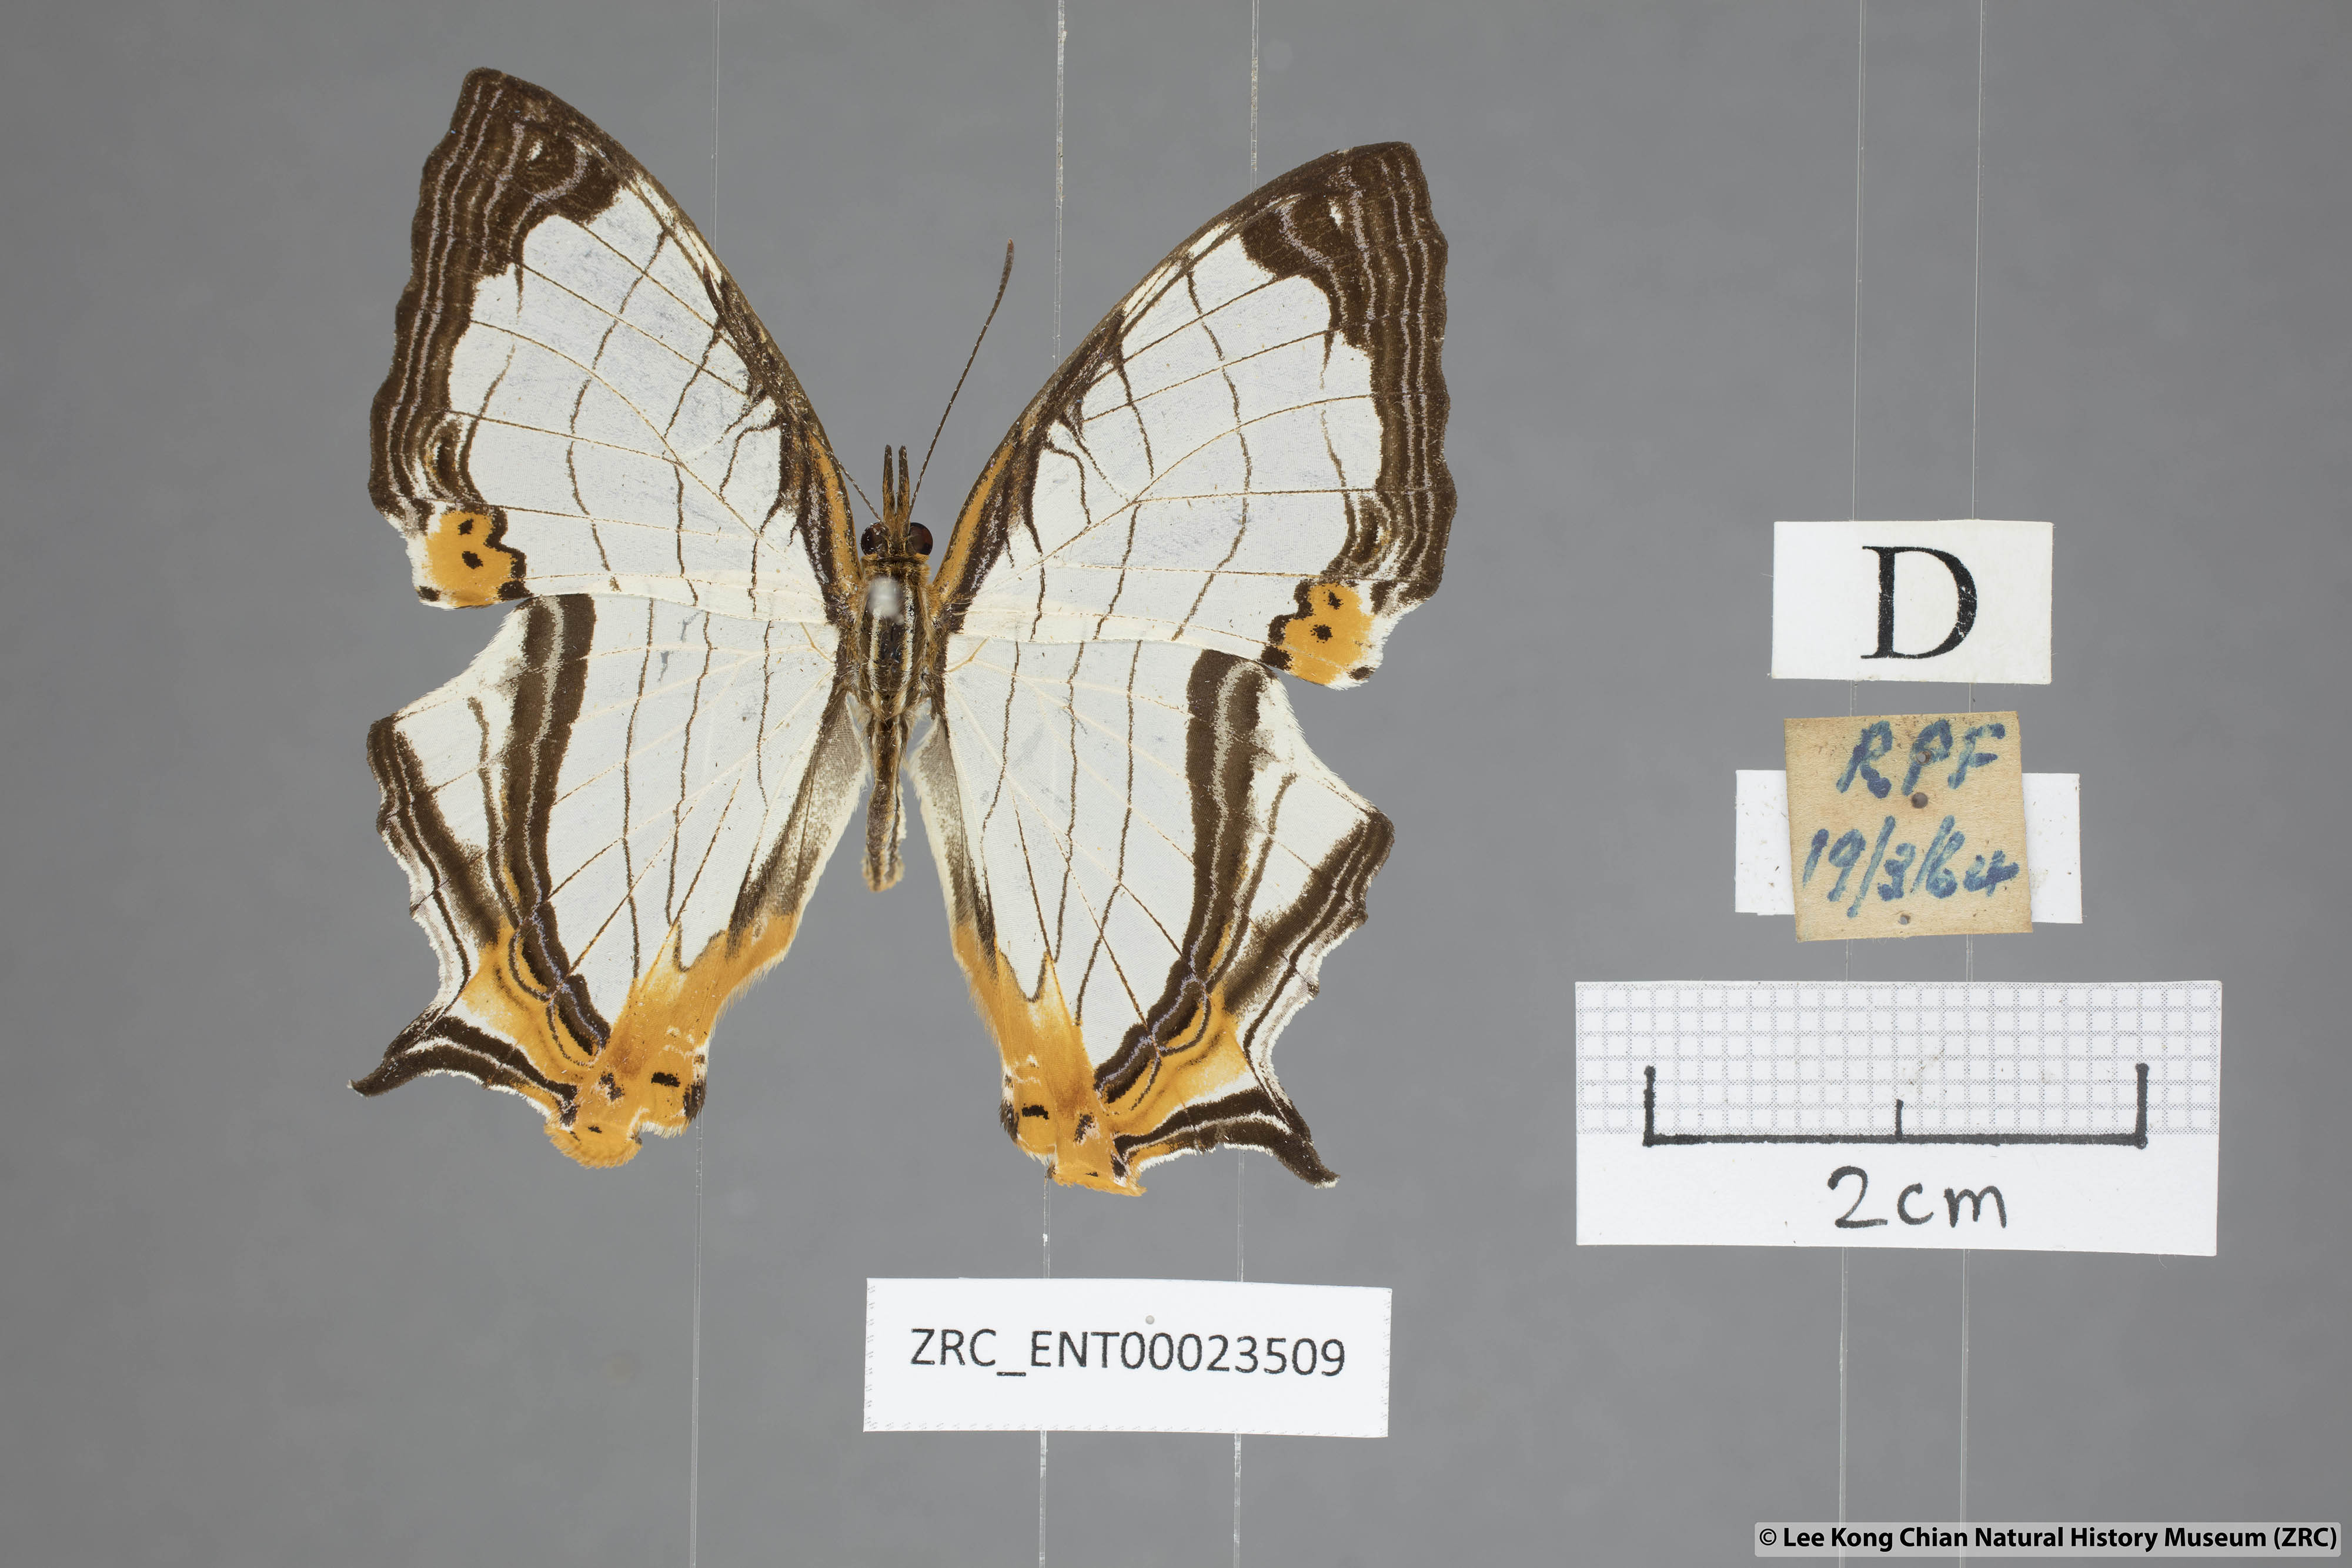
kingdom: Animalia
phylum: Arthropoda
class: Insecta
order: Lepidoptera
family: Nymphalidae
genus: Cyrestis
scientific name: Cyrestis nivea
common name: Straight line mapwing
